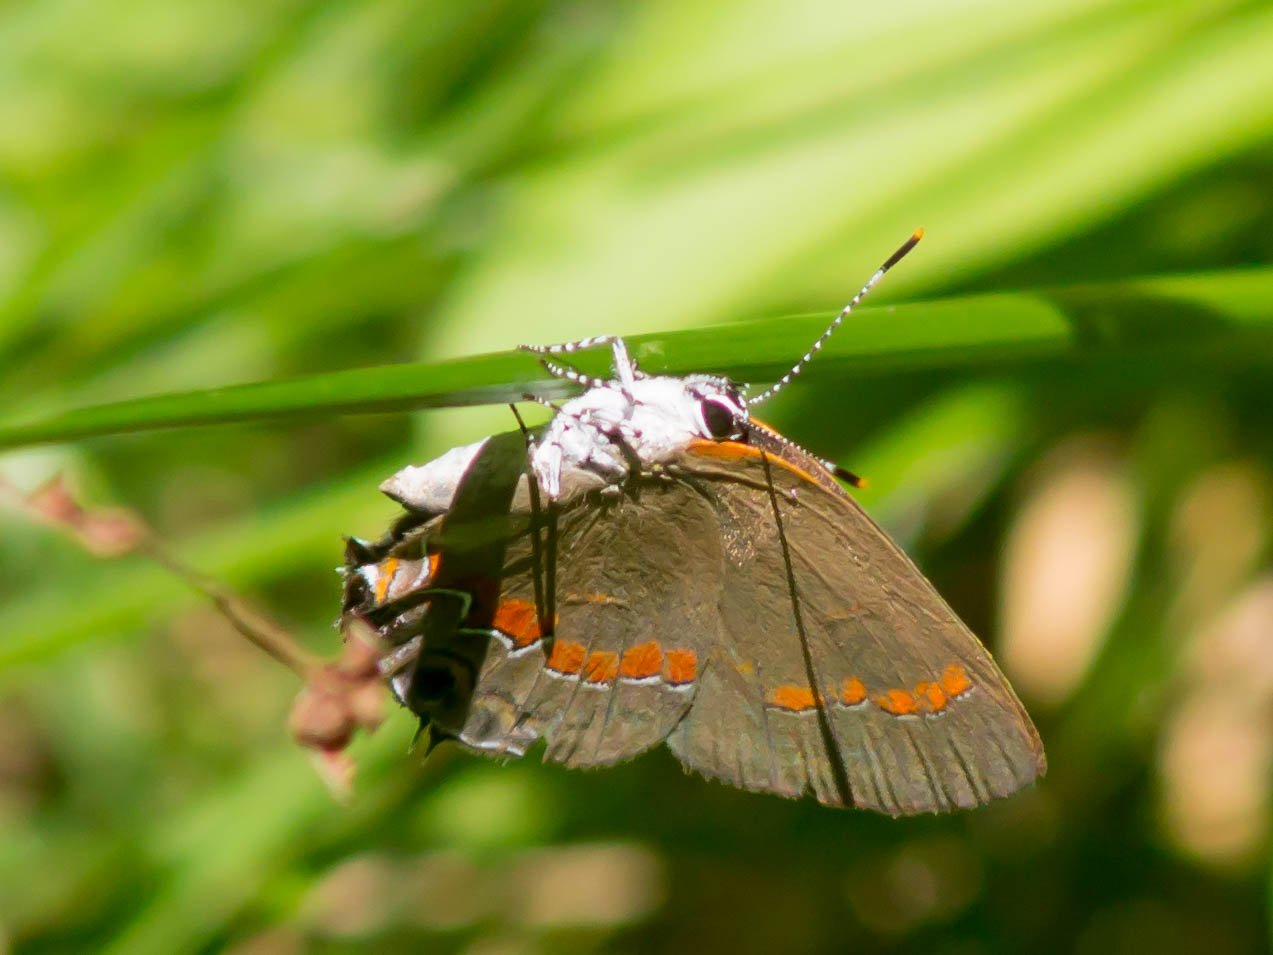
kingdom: Animalia
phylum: Arthropoda
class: Insecta
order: Lepidoptera
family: Lycaenidae
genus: Calycopis
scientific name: Calycopis cecrops
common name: Red-banded Hairstreak
